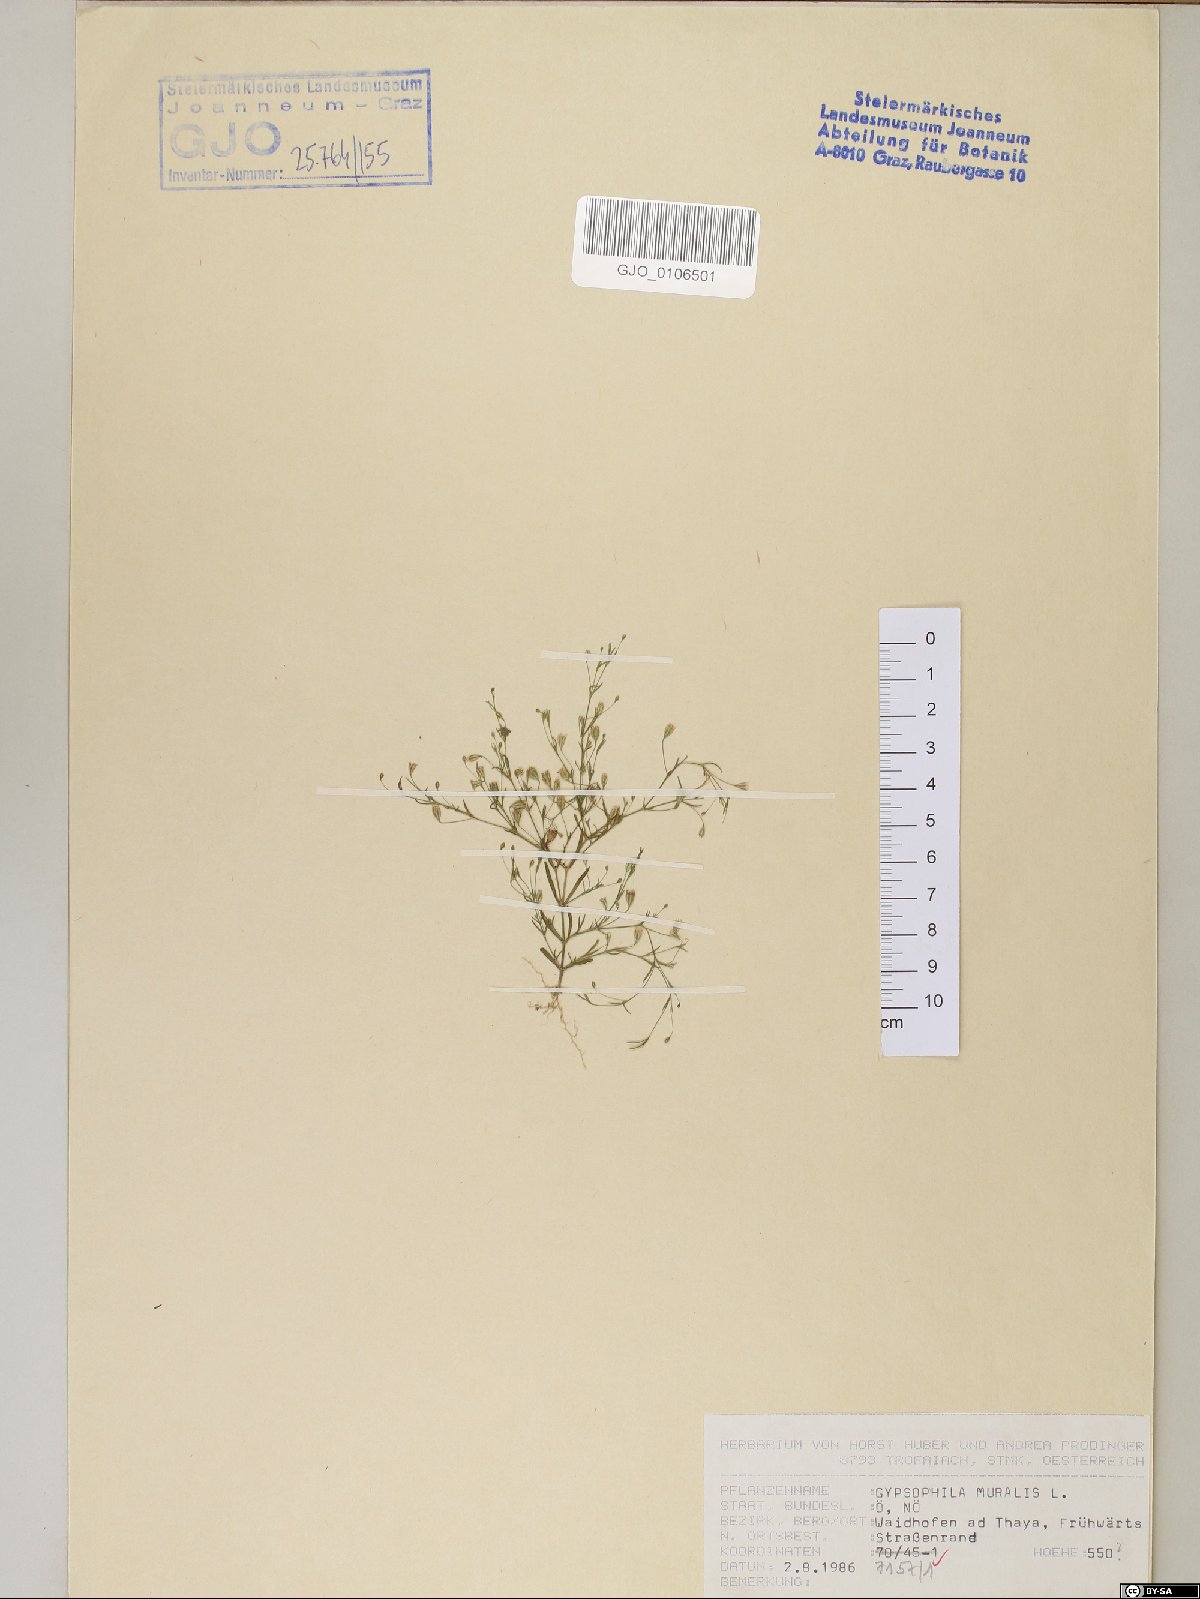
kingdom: Plantae
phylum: Tracheophyta
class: Magnoliopsida
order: Caryophyllales
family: Caryophyllaceae
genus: Psammophiliella
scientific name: Psammophiliella muralis
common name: Cushion baby's-breath
